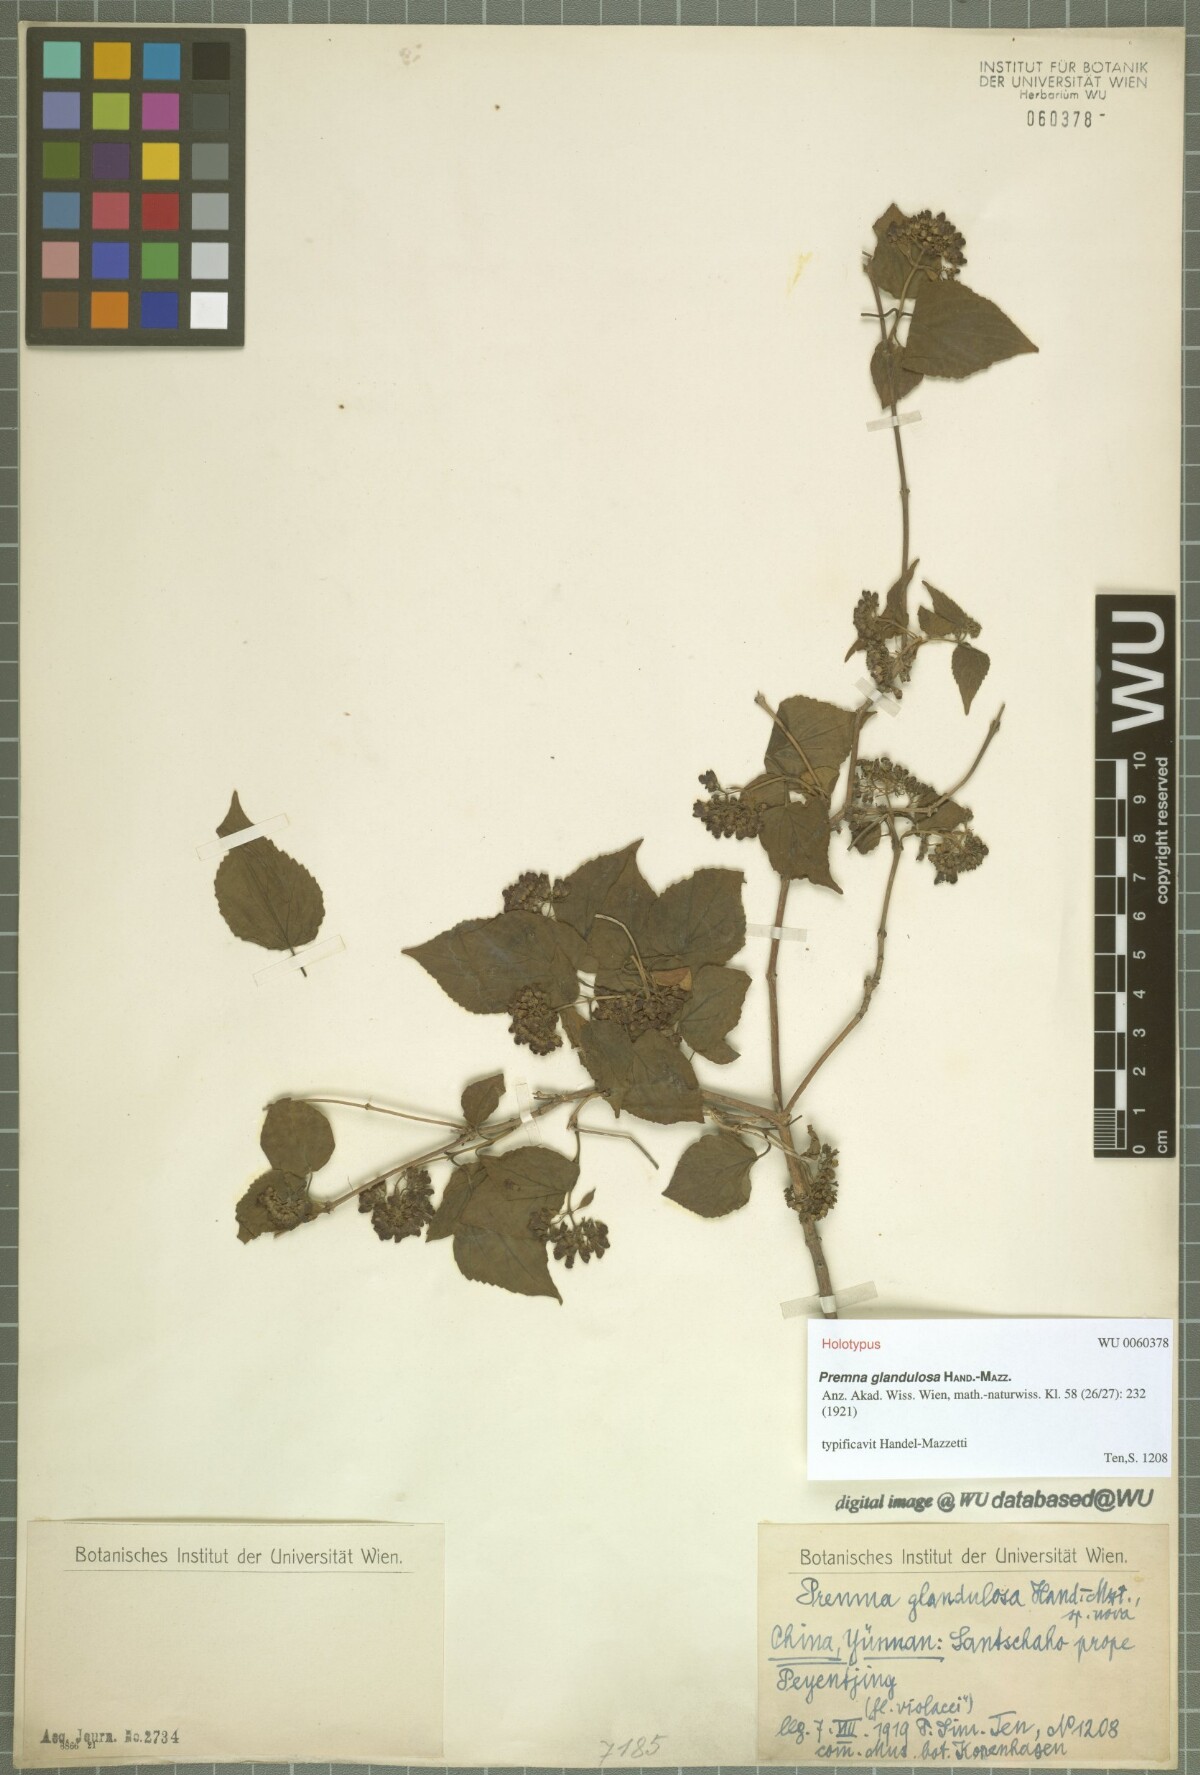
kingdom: Plantae
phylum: Tracheophyta
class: Magnoliopsida
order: Lamiales
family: Lamiaceae
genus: Premna
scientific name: Premna glandulosa
